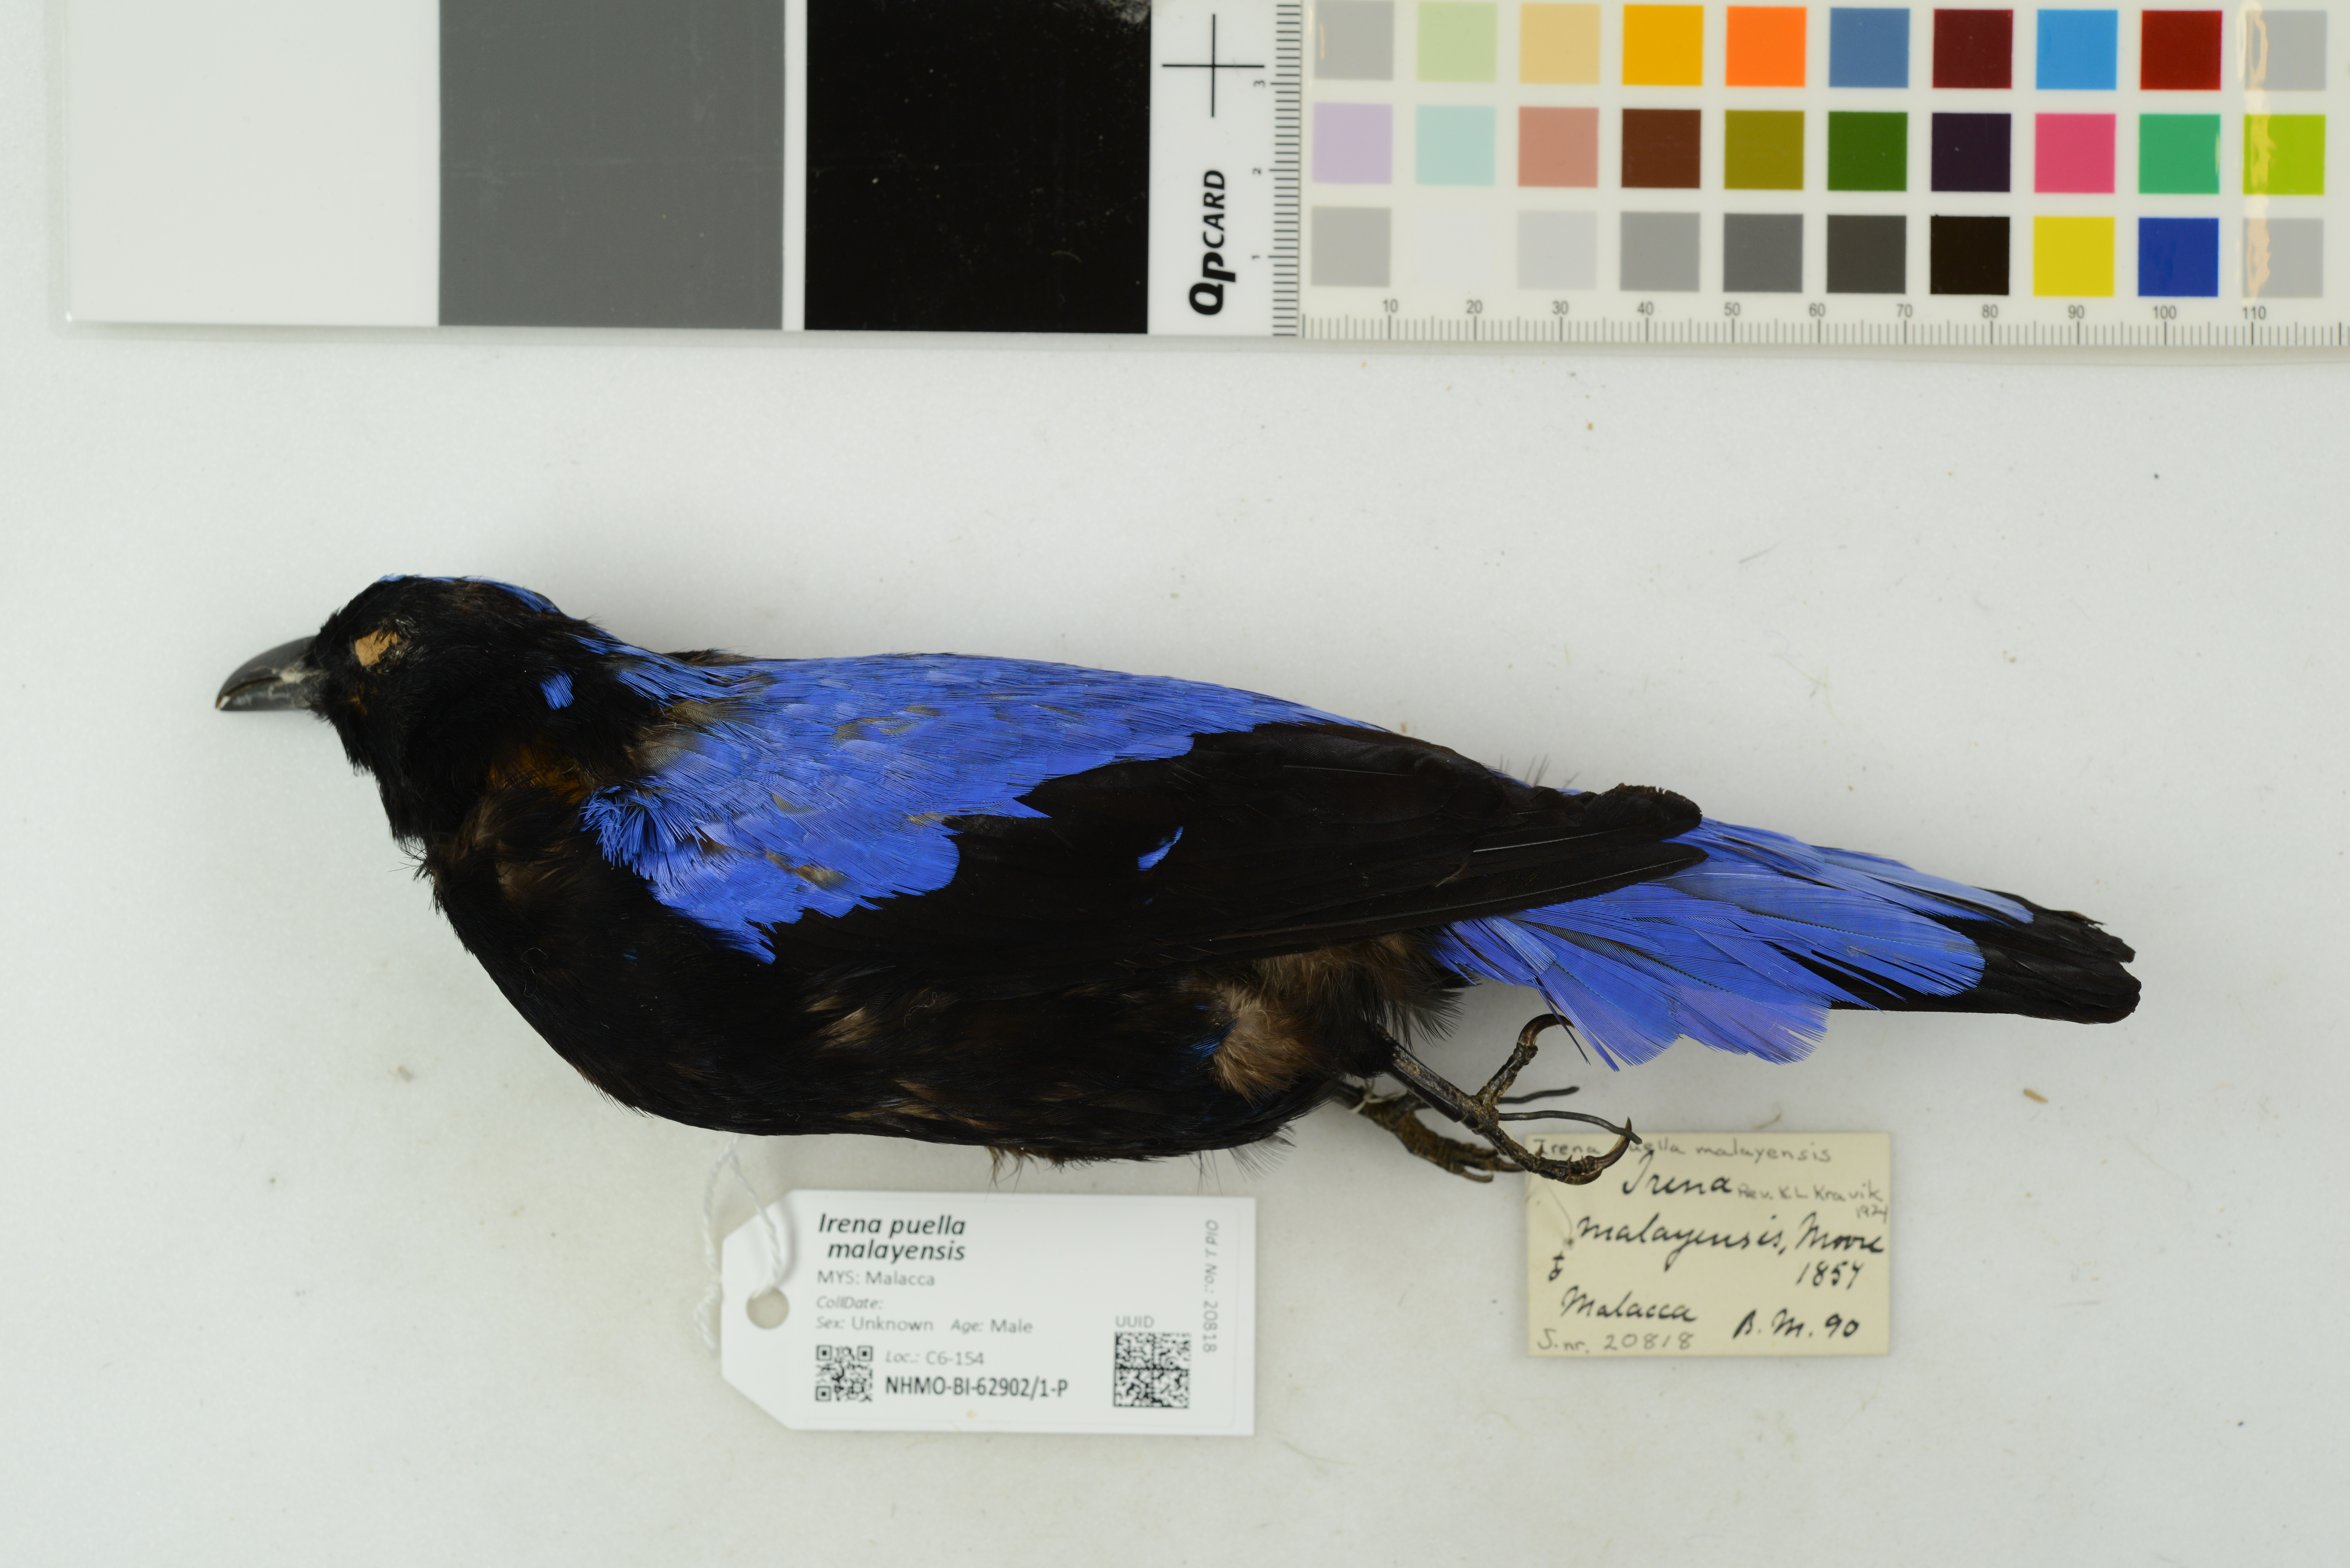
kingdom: Animalia
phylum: Chordata
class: Aves
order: Passeriformes
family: Irenidae
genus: Irena
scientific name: Irena puella
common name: Asian fairy-bluebird
